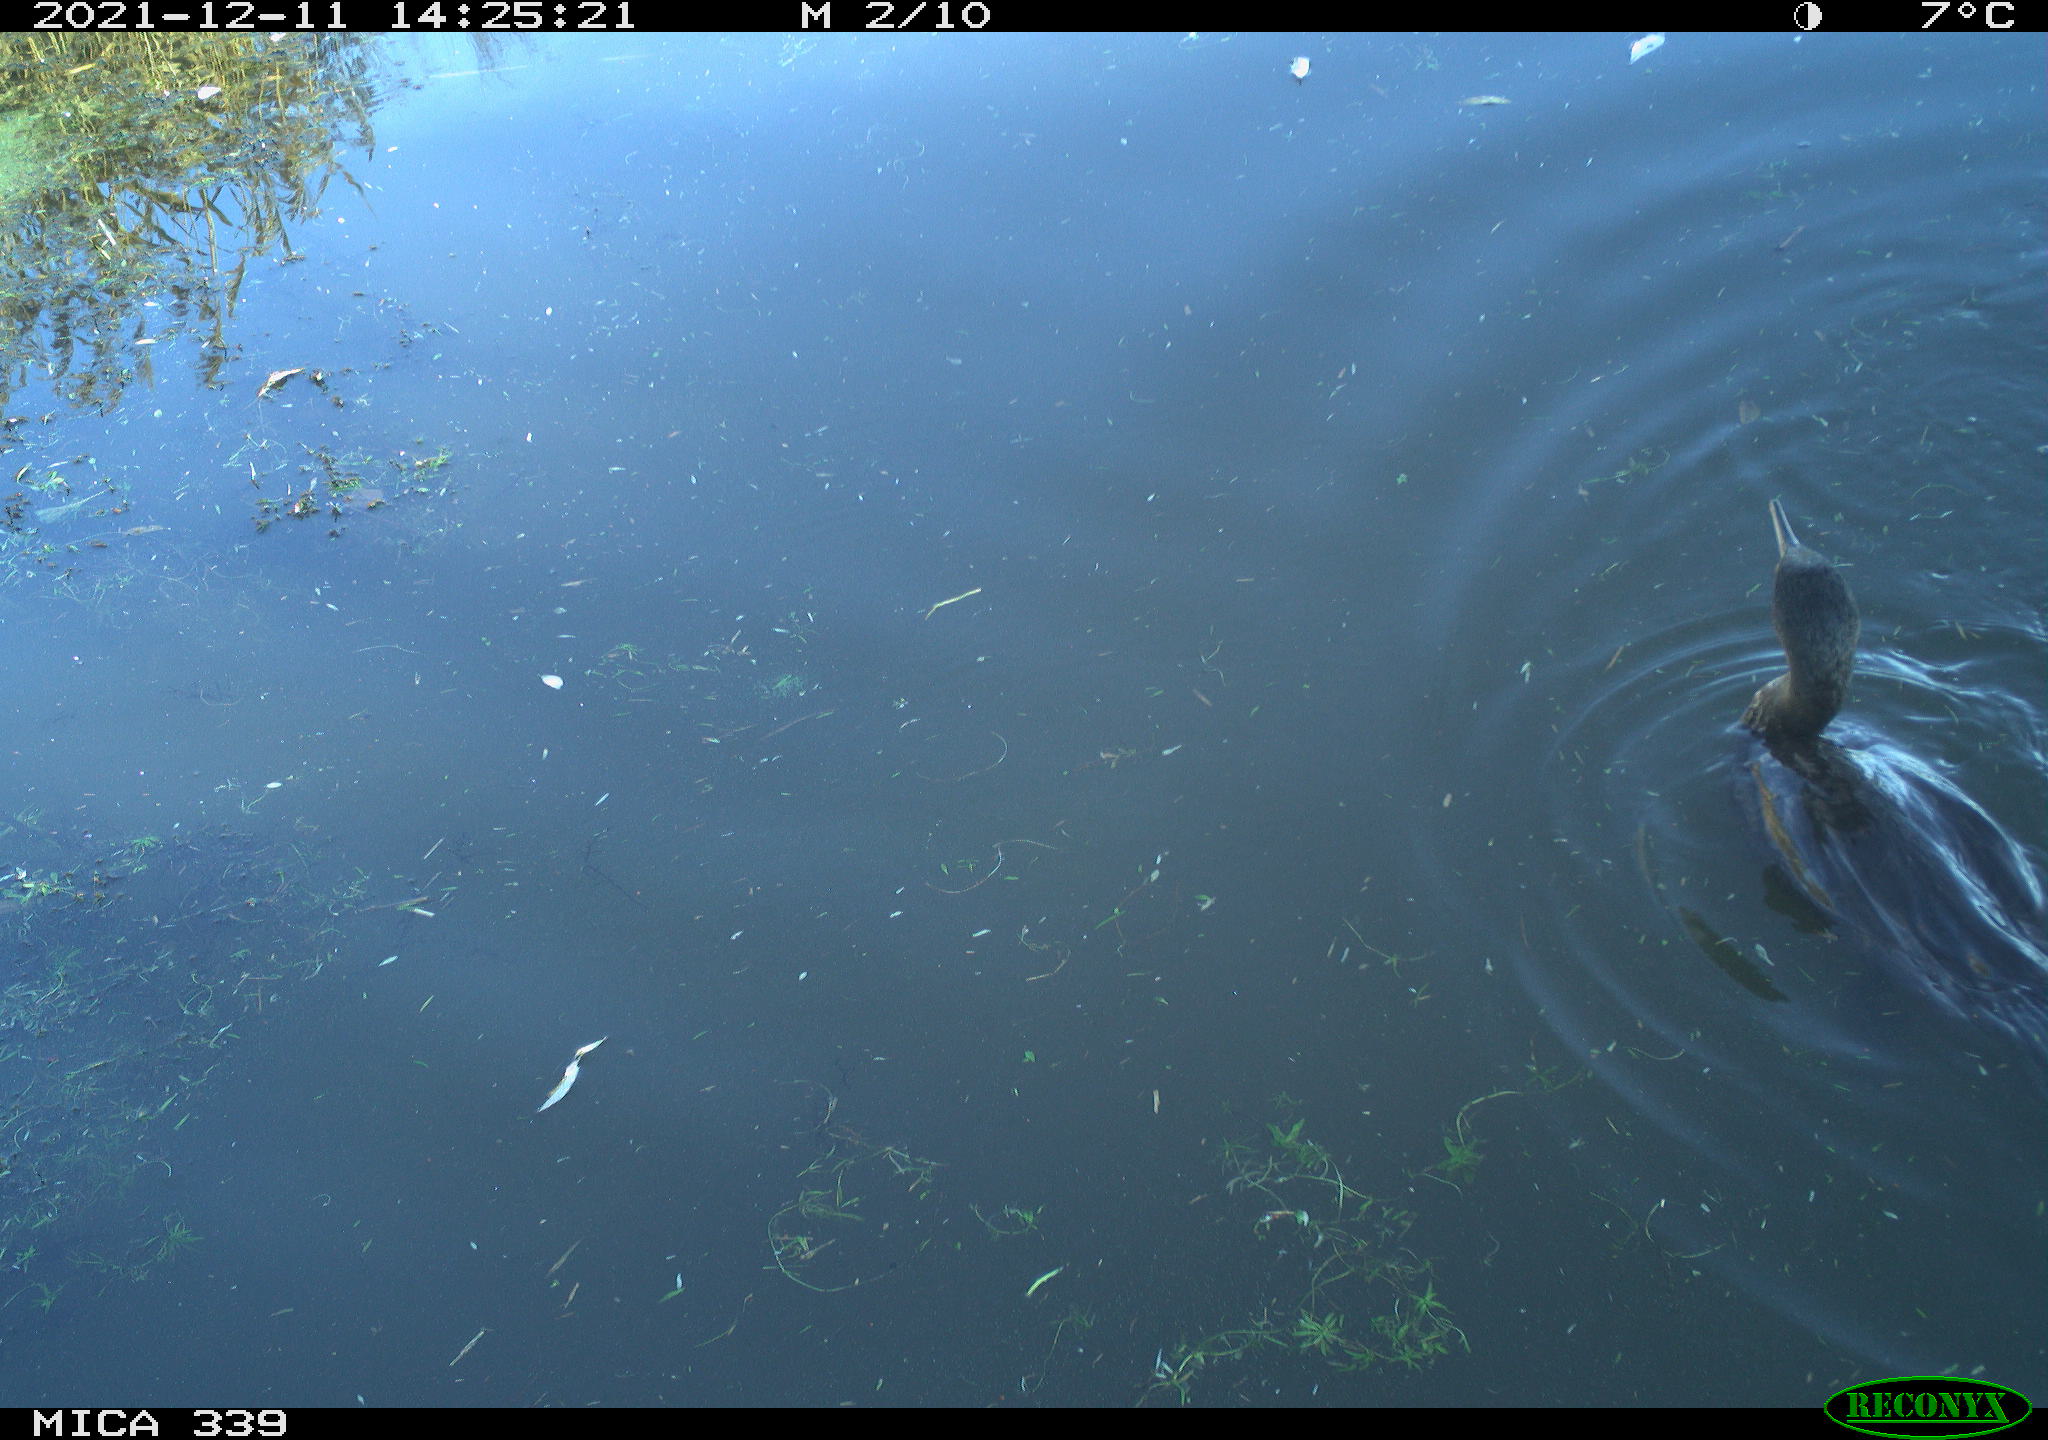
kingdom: Animalia
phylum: Chordata
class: Aves
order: Suliformes
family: Phalacrocoracidae
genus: Phalacrocorax
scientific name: Phalacrocorax carbo
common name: Great cormorant
